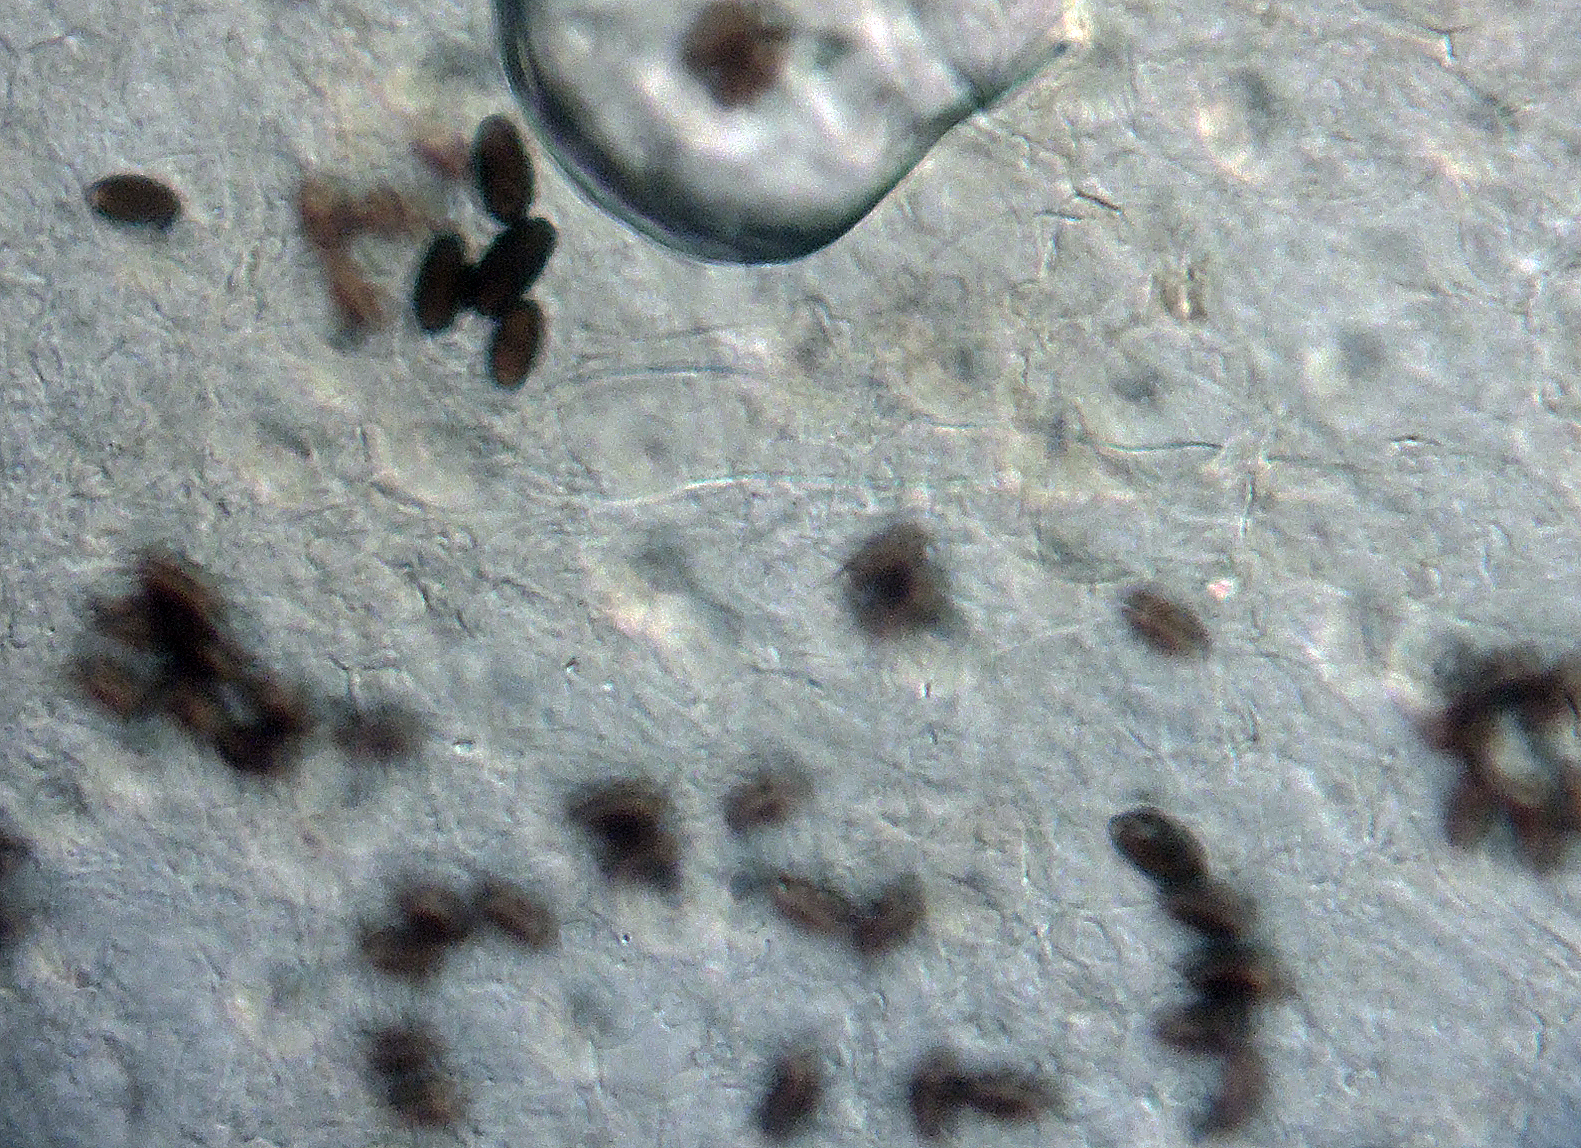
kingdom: Fungi
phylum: Basidiomycota
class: Agaricomycetes
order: Agaricales
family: Psathyrellaceae
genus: Tulosesus
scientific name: Tulosesus hiascens
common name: udspilet blækhat
